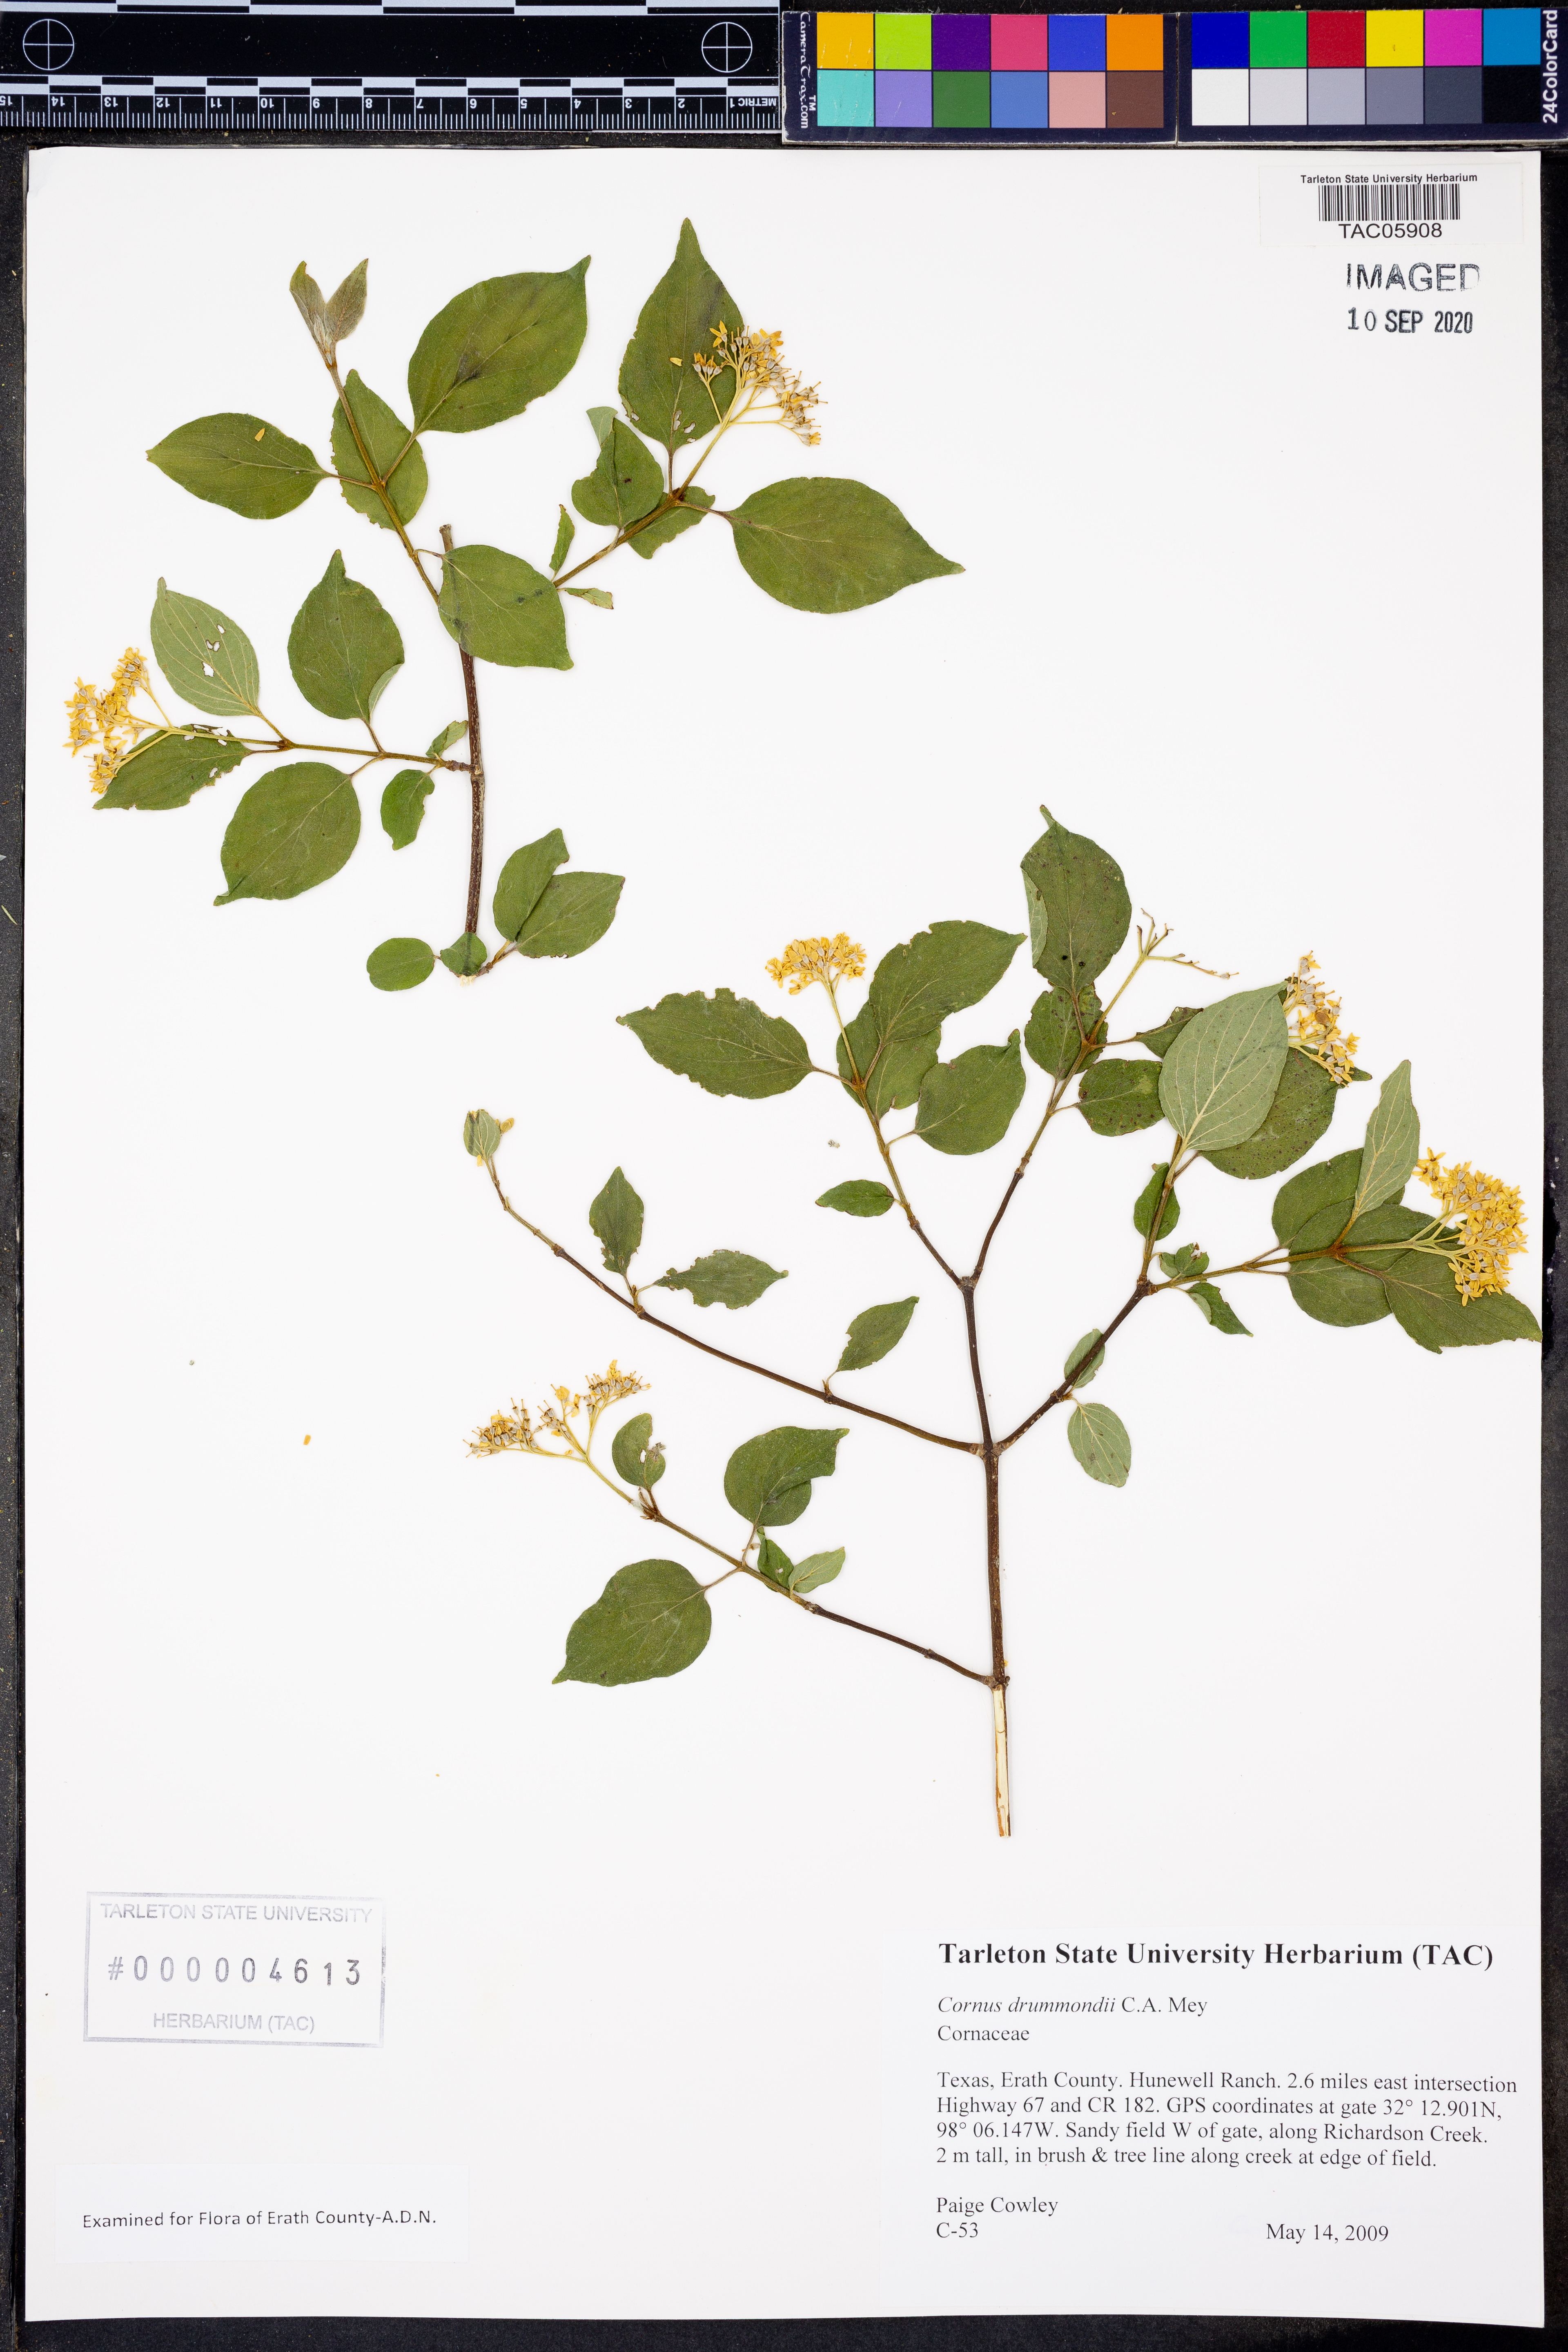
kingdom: Plantae
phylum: Tracheophyta
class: Magnoliopsida
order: Cornales
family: Cornaceae
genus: Cornus
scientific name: Cornus drummondii
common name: Rough-leaf dogwood
